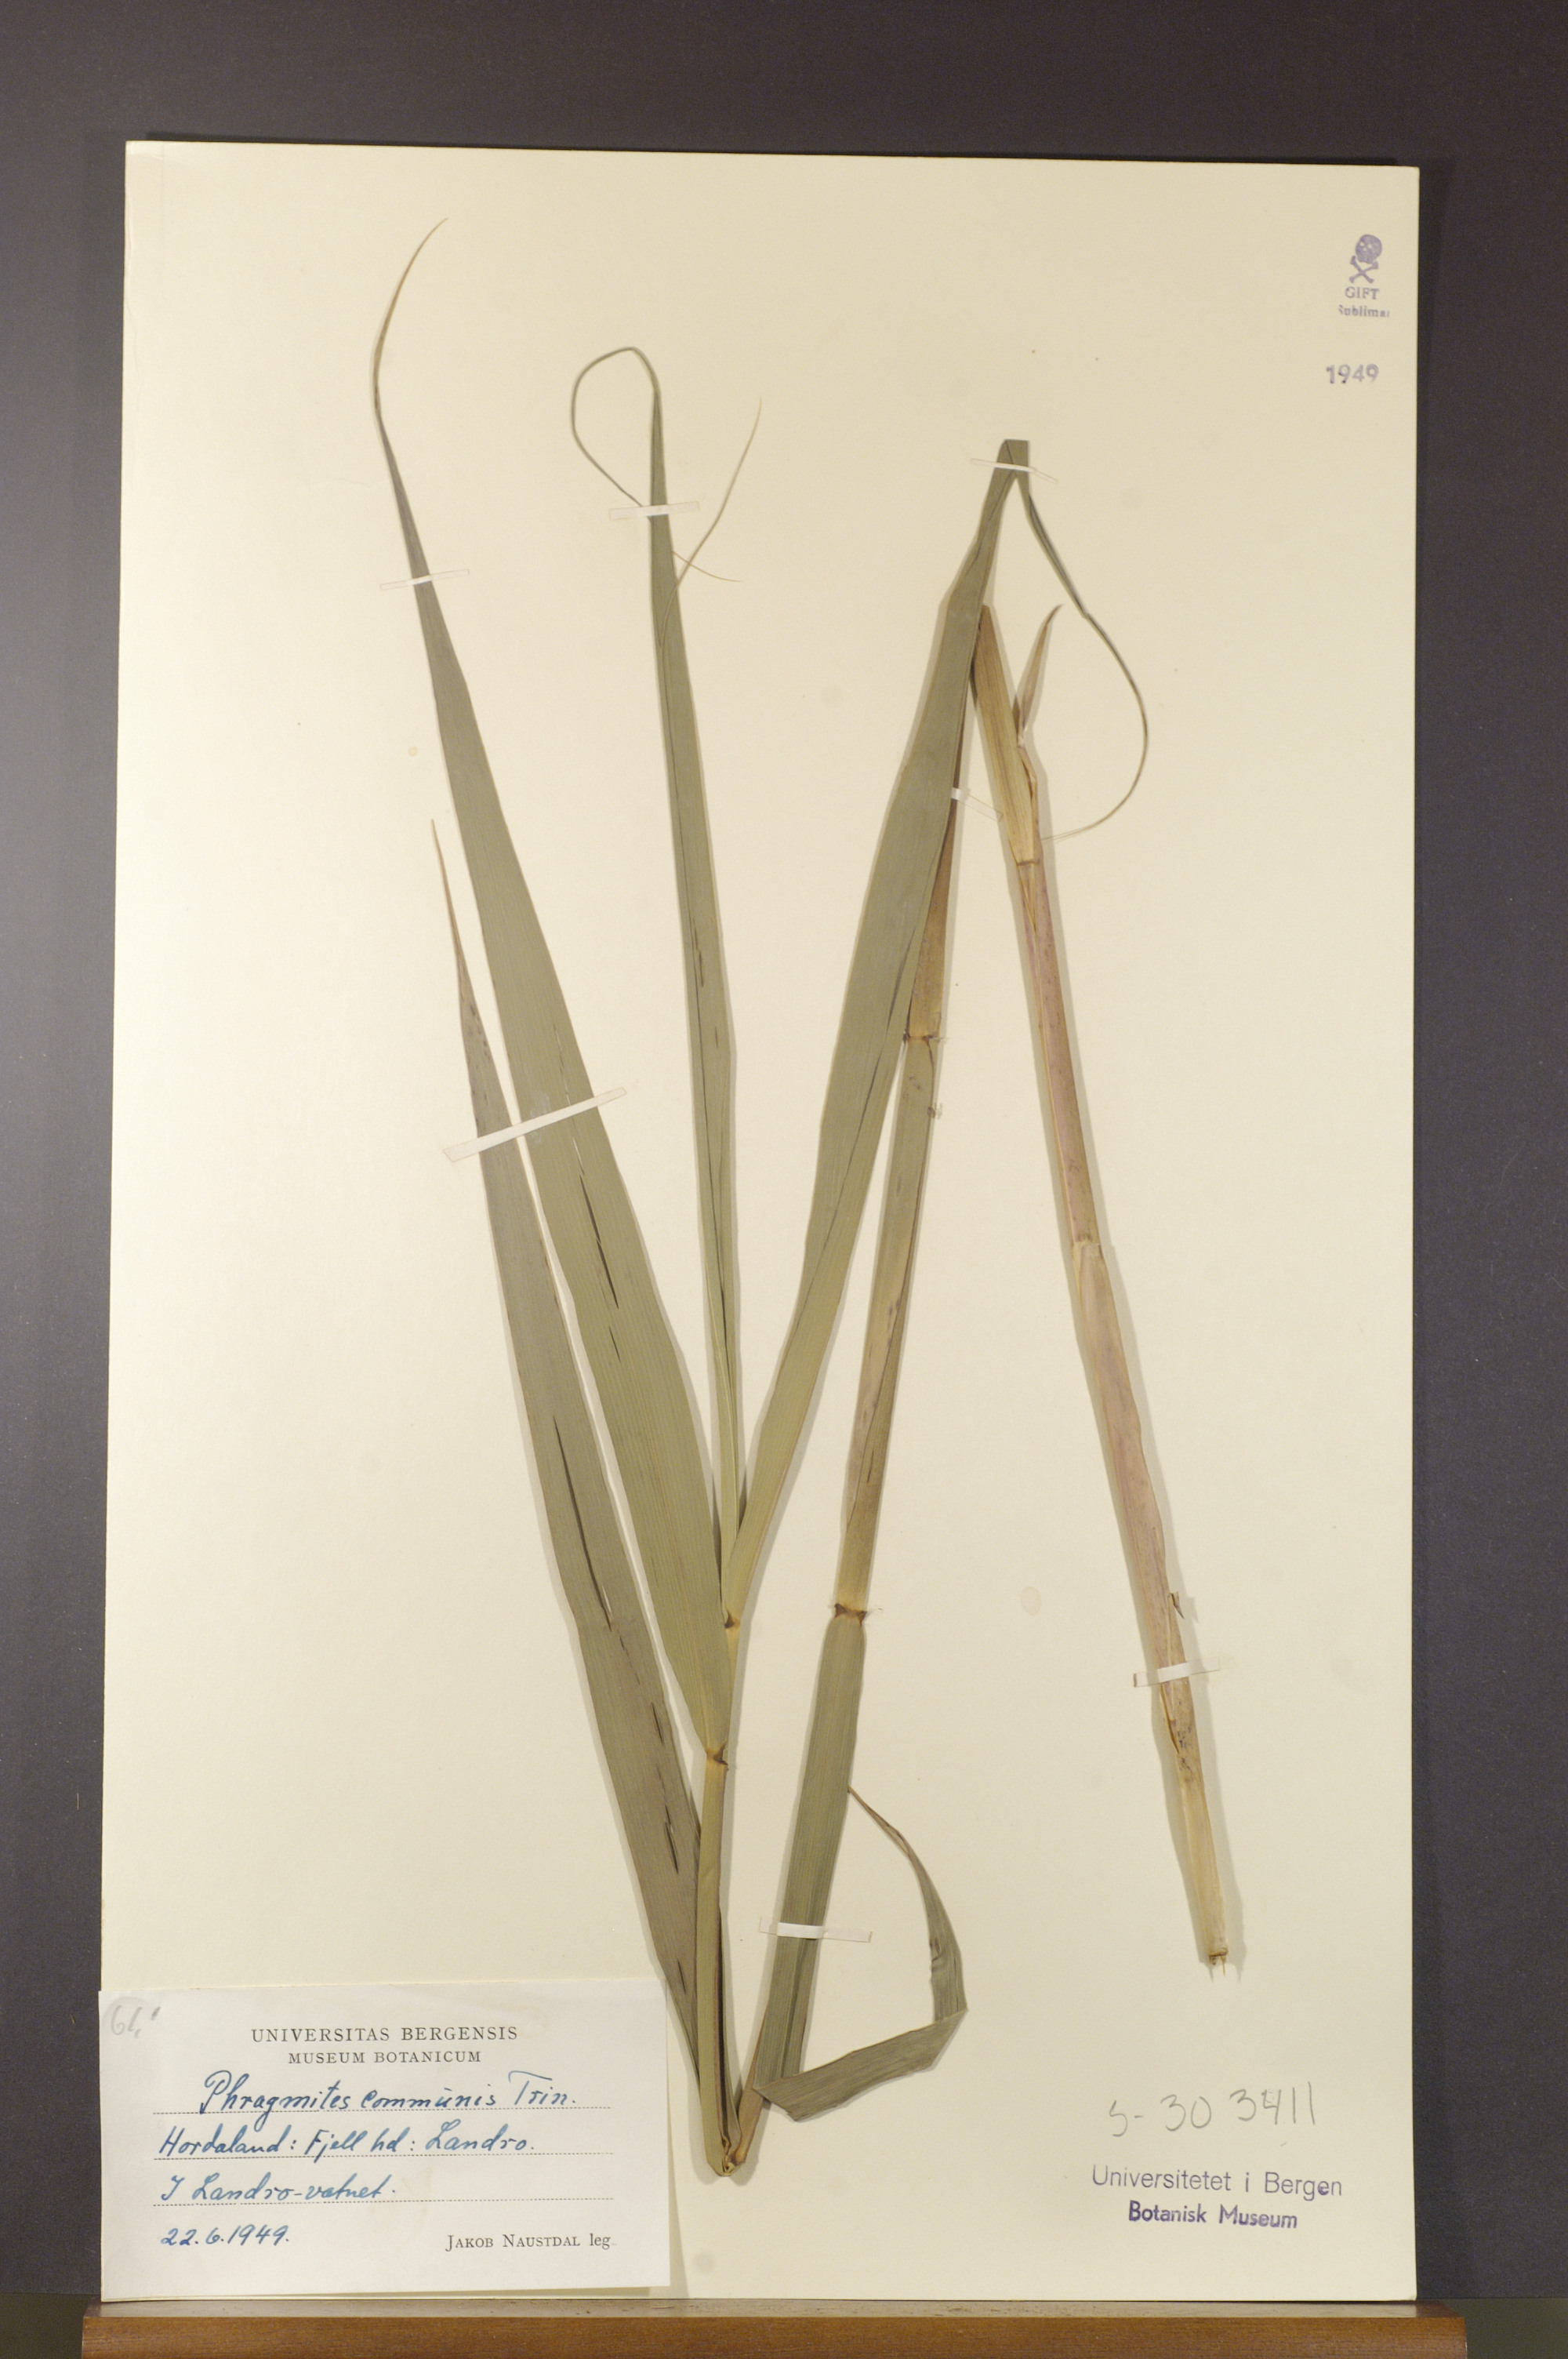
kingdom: Plantae
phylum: Tracheophyta
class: Liliopsida
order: Poales
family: Poaceae
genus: Phragmites
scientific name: Phragmites australis
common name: Common reed
